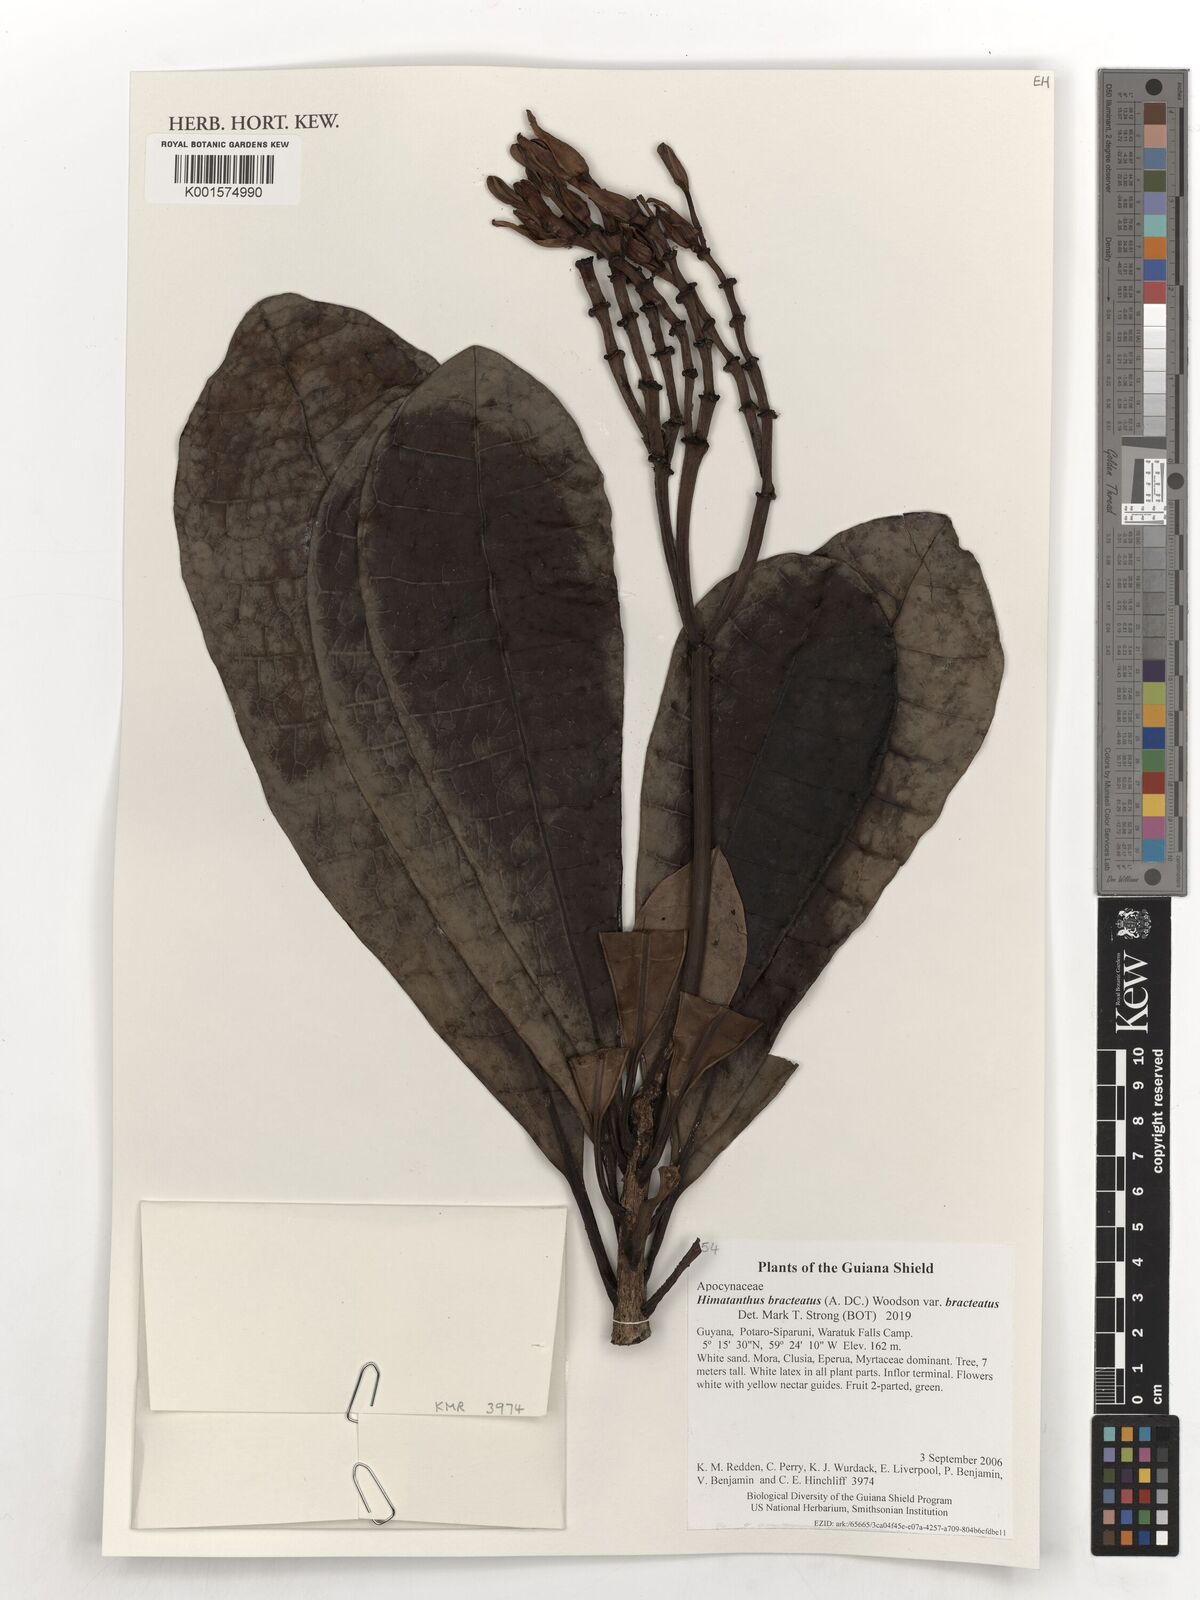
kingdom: Plantae
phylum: Tracheophyta
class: Magnoliopsida
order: Gentianales
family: Apocynaceae
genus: Himatanthus
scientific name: Himatanthus bracteatus
